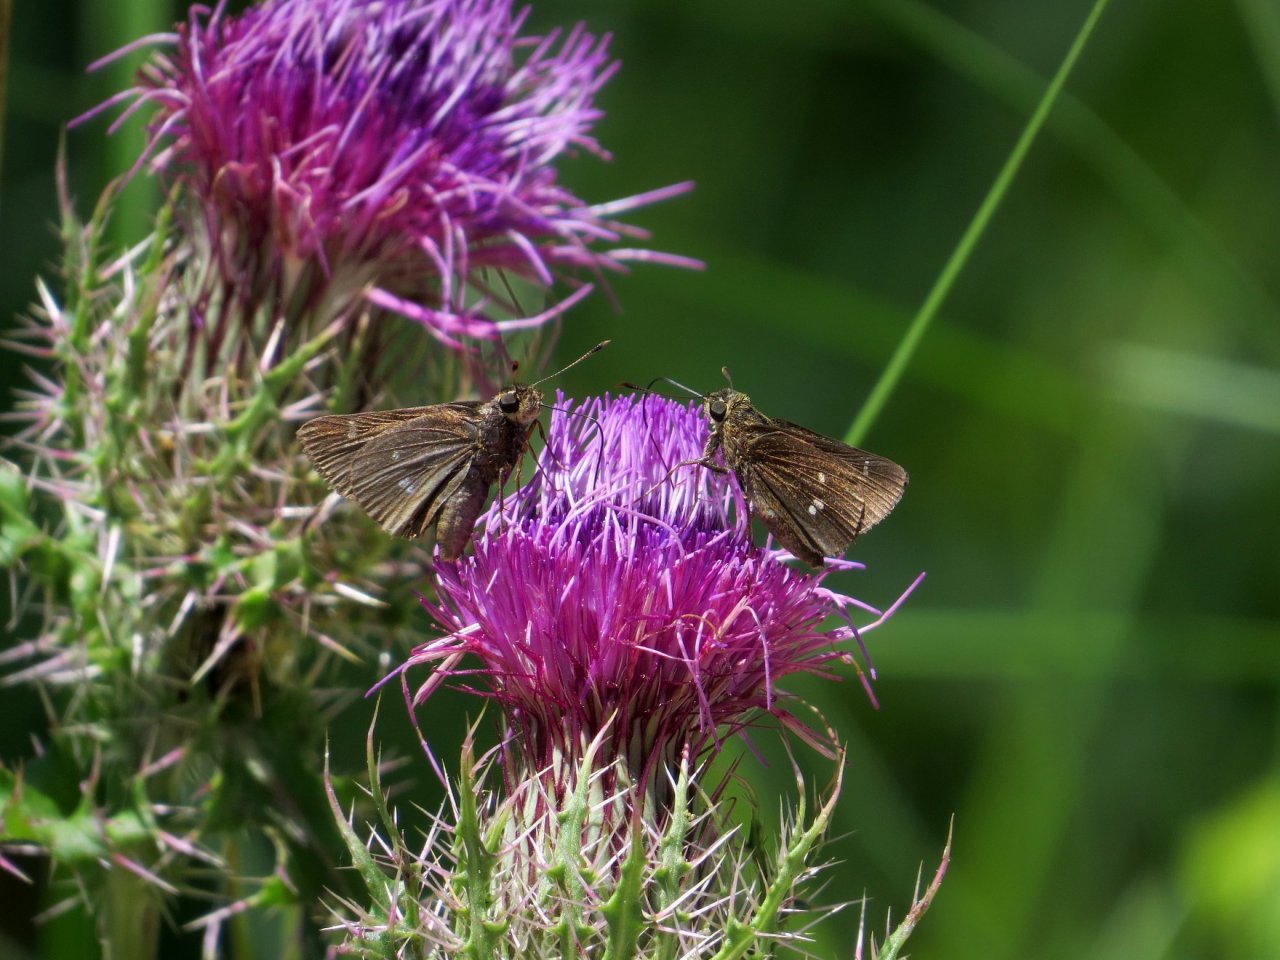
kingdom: Animalia
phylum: Arthropoda
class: Insecta
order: Lepidoptera
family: Hesperiidae
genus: Oligoria
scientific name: Oligoria maculata
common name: Twin-spot Skipper
